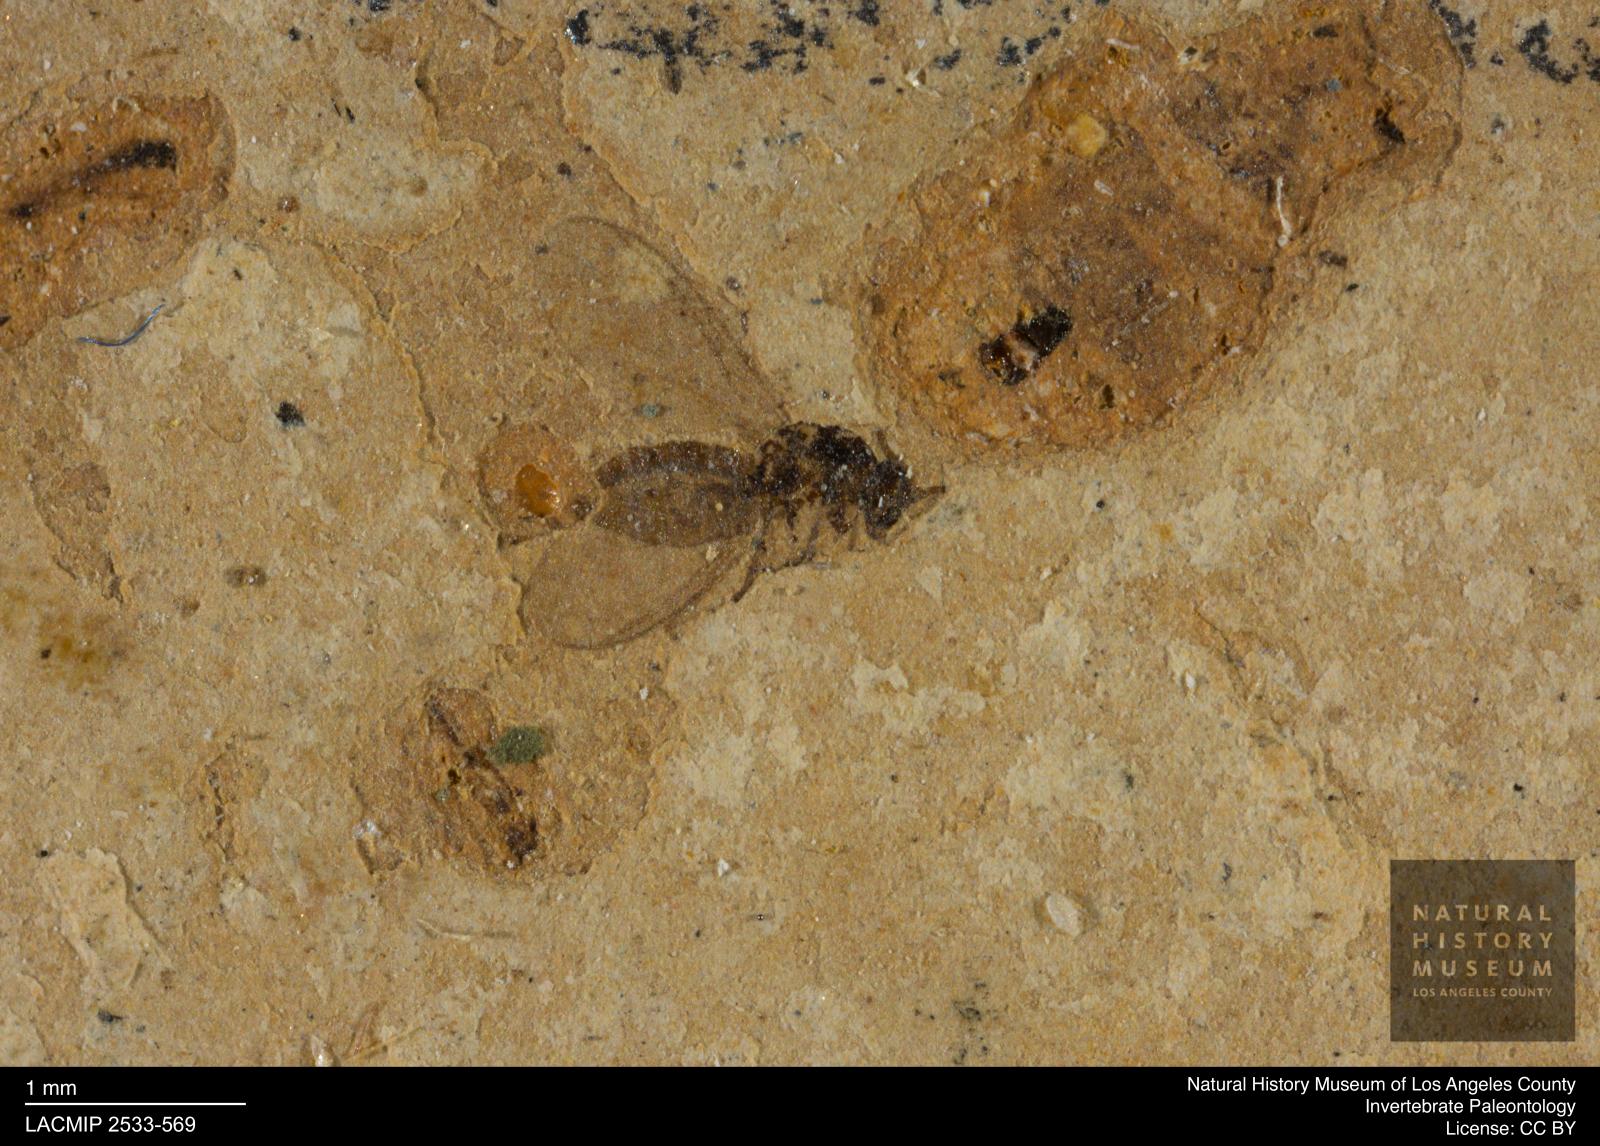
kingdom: Animalia
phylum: Arthropoda
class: Insecta
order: Diptera
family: Sciaridae
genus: Corynoptera
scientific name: Corynoptera klebsii
